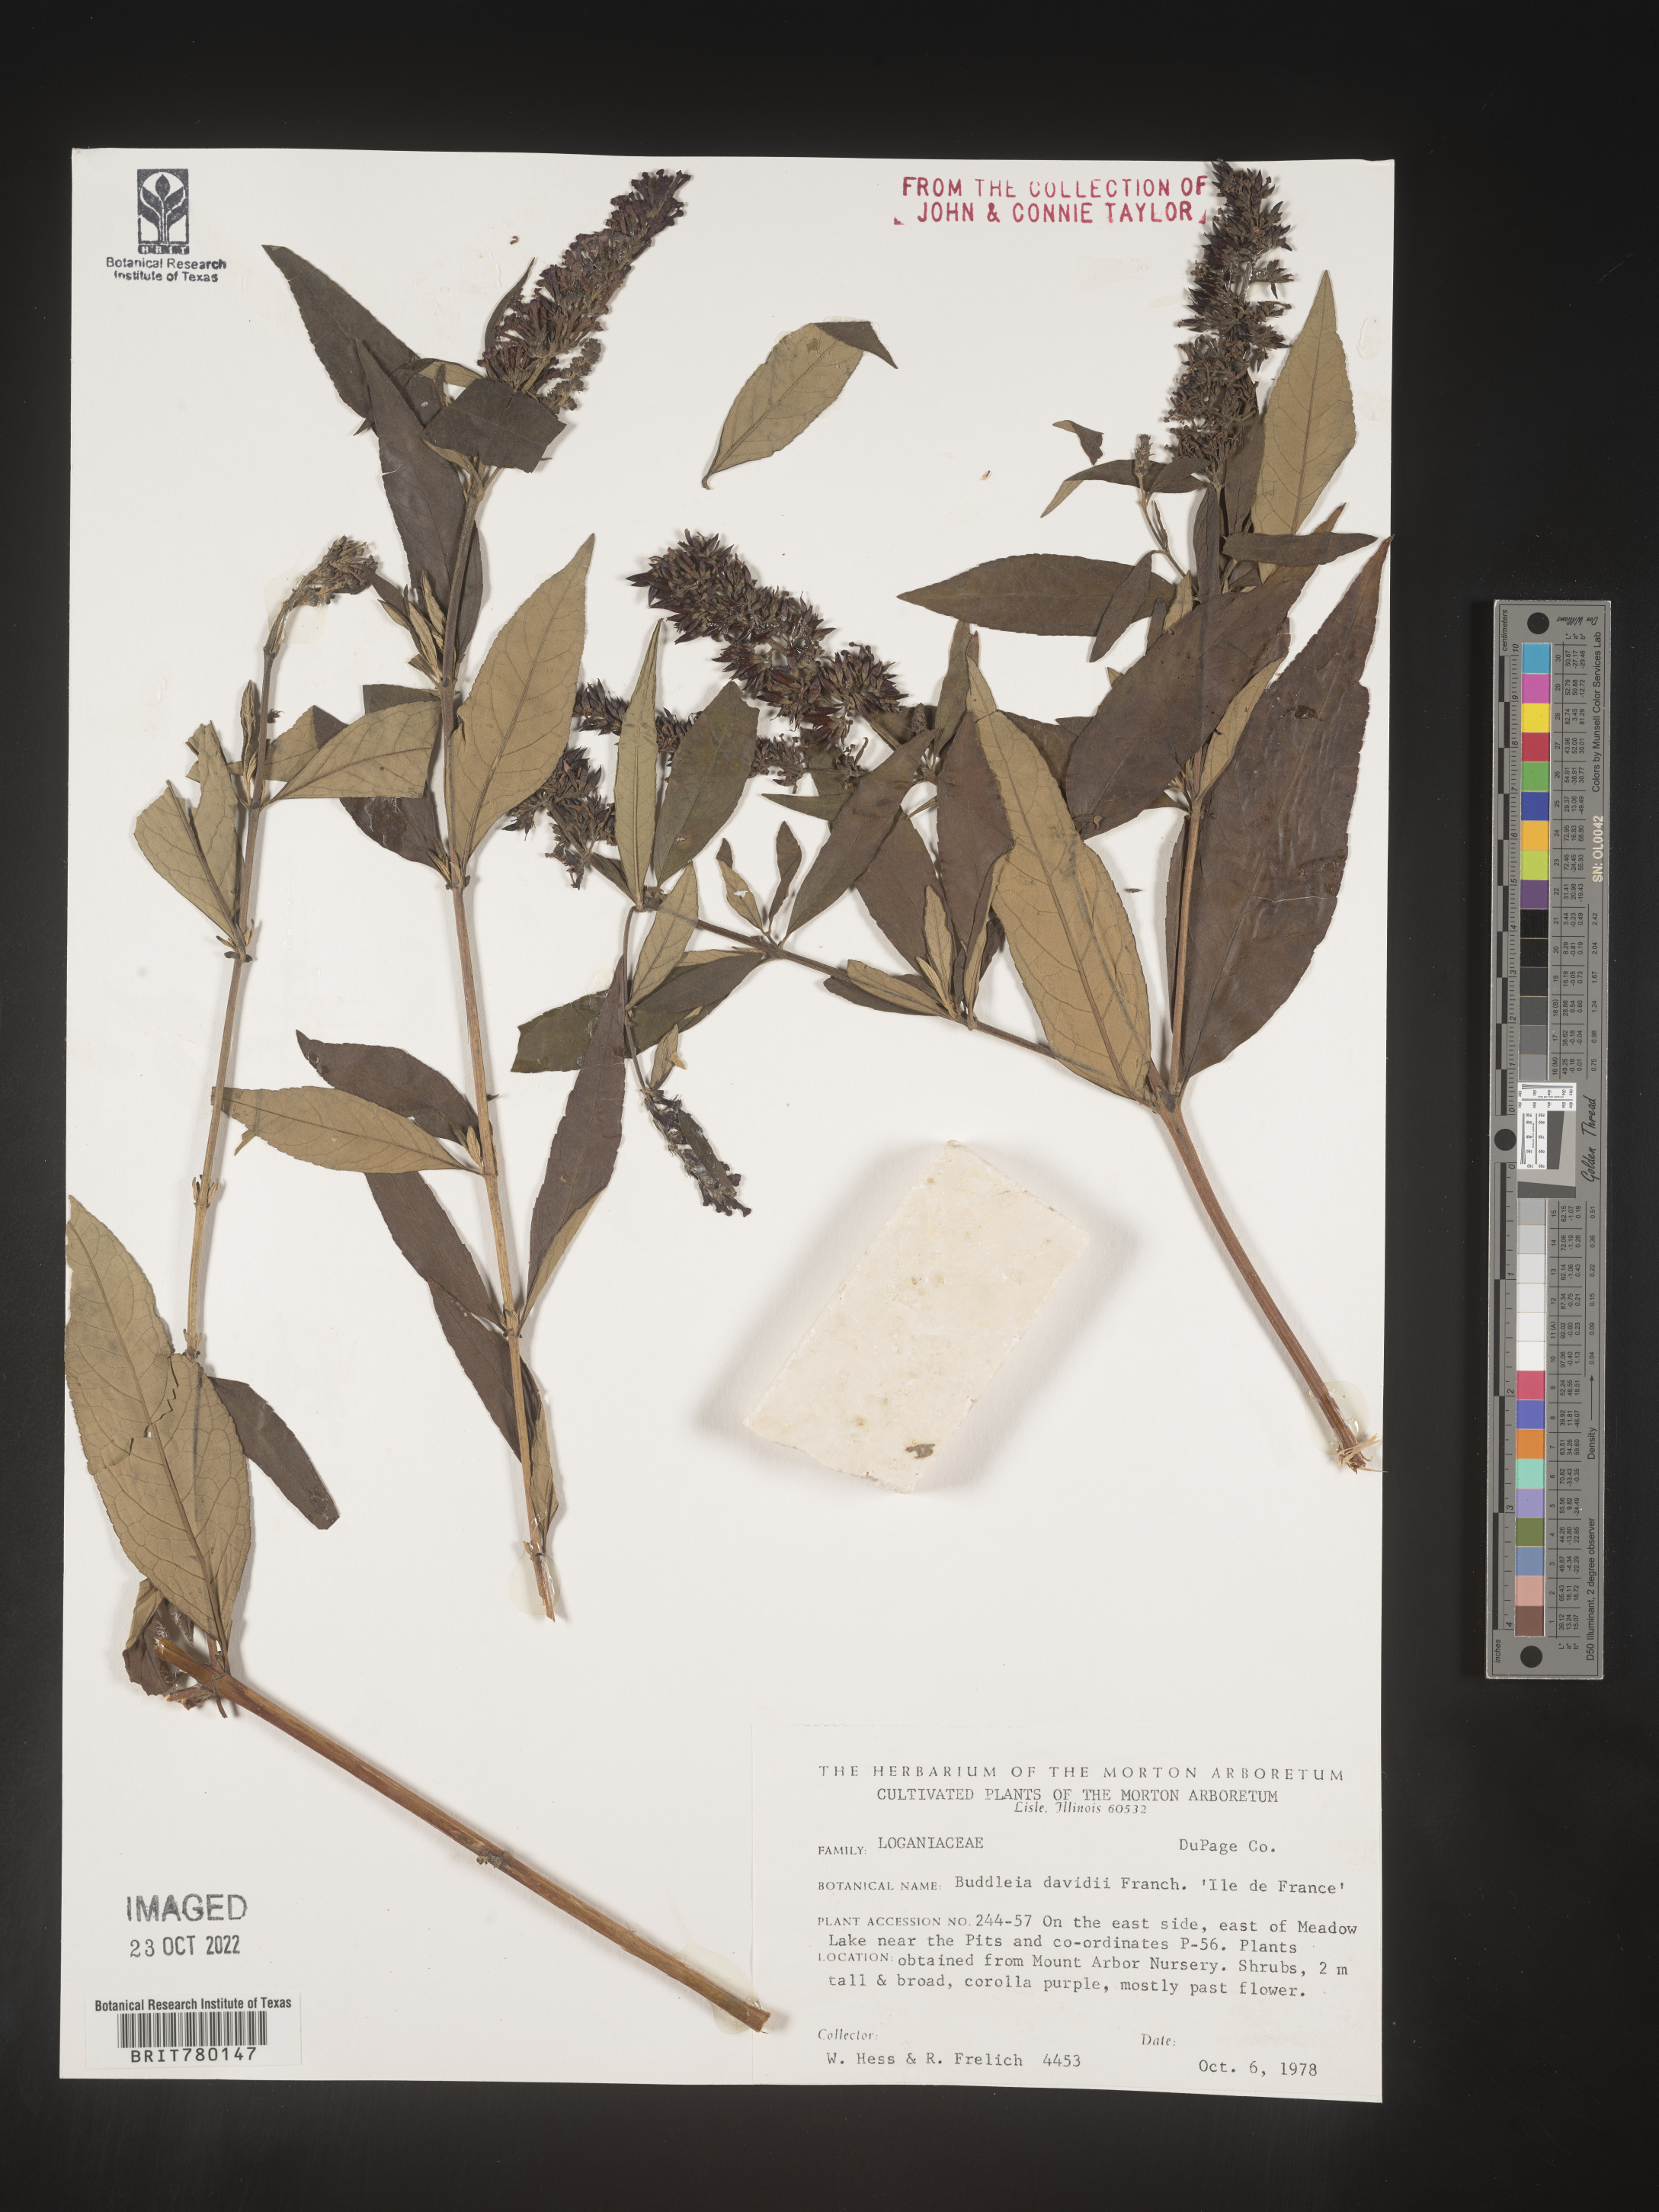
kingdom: Plantae
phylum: Tracheophyta
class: Magnoliopsida
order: Lamiales
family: Scrophulariaceae
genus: Buddleja
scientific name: Buddleja
